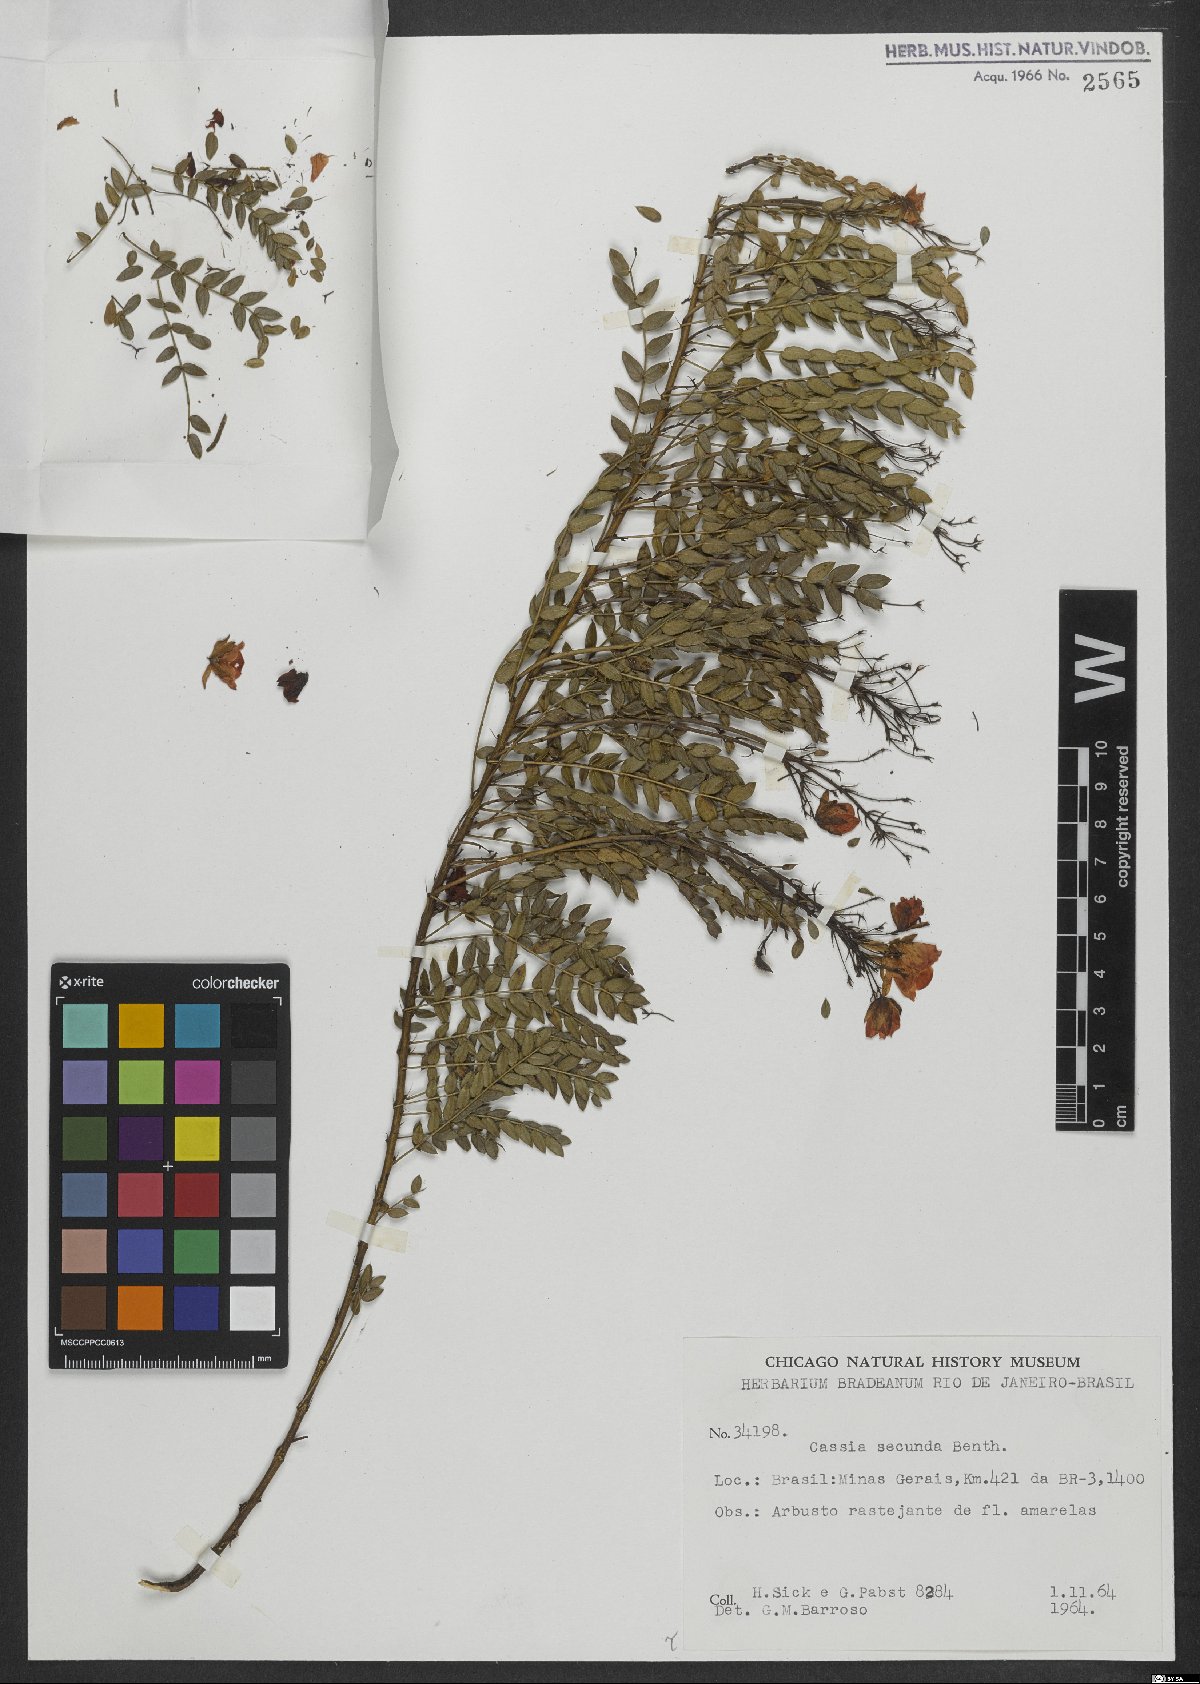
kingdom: Plantae
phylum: Tracheophyta
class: Magnoliopsida
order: Fabales
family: Fabaceae
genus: Chamaecrista
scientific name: Chamaecrista secunda
